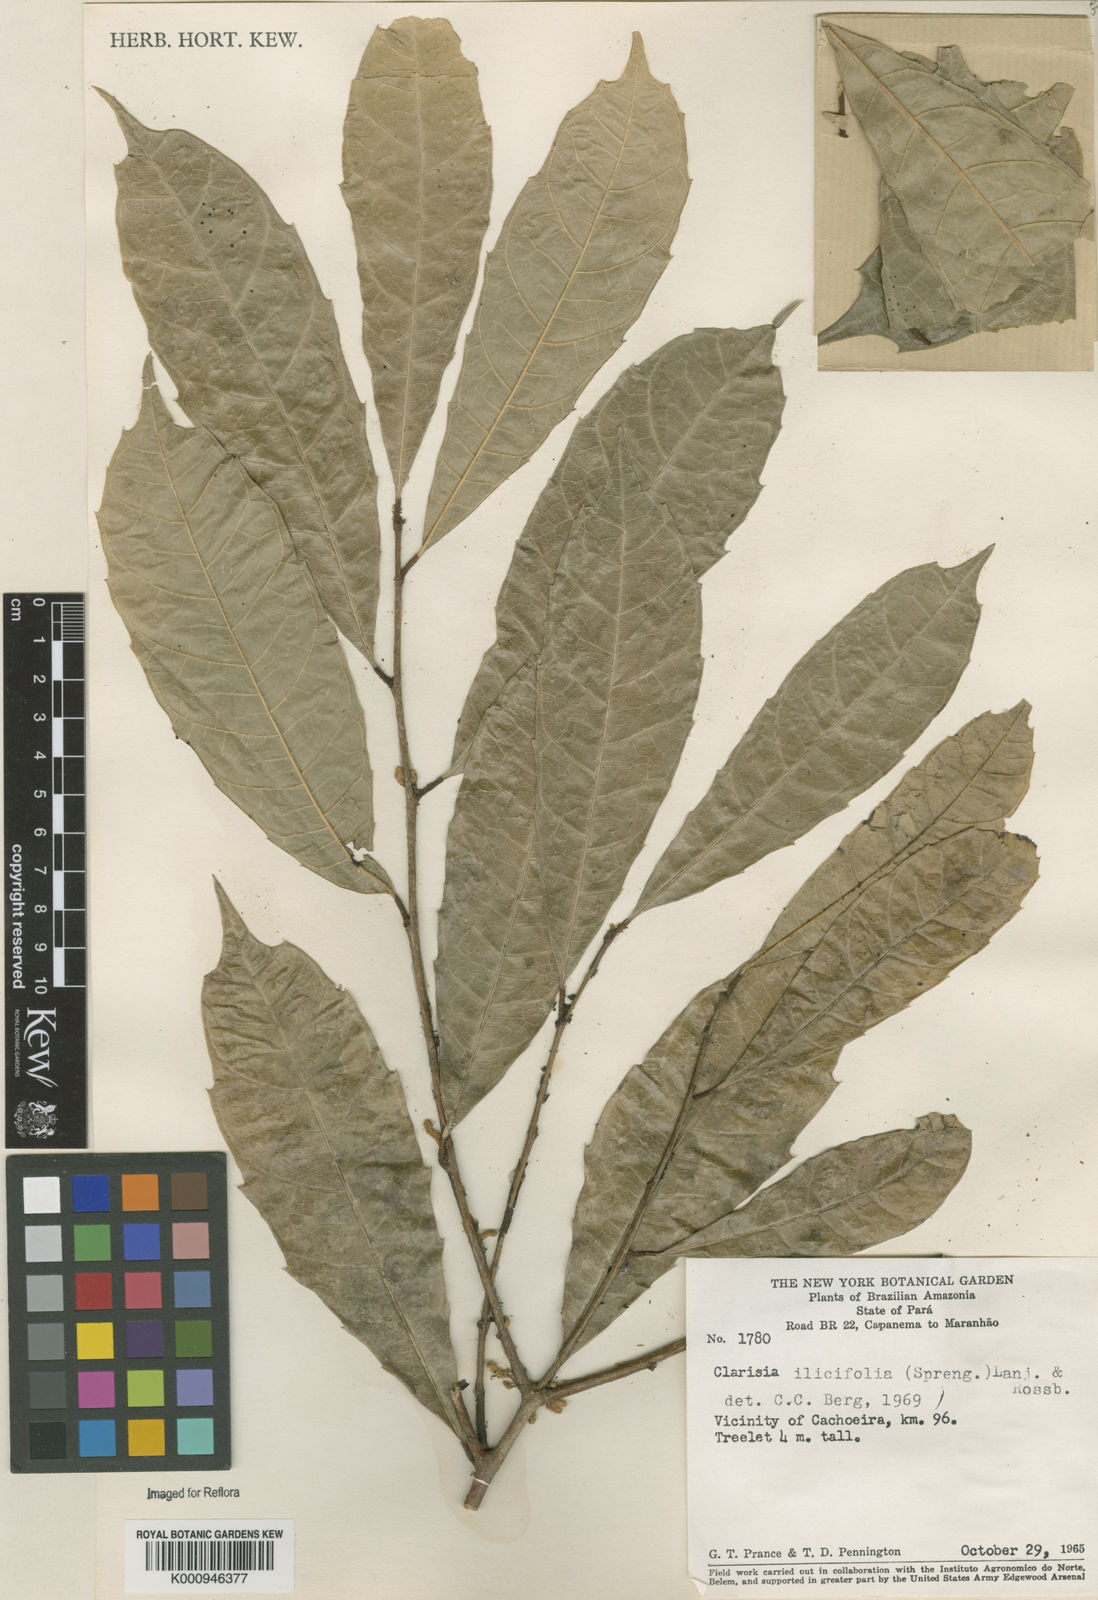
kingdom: Plantae
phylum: Tracheophyta
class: Magnoliopsida
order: Rosales
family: Moraceae
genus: Clarisia
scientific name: Clarisia ilicifolia
